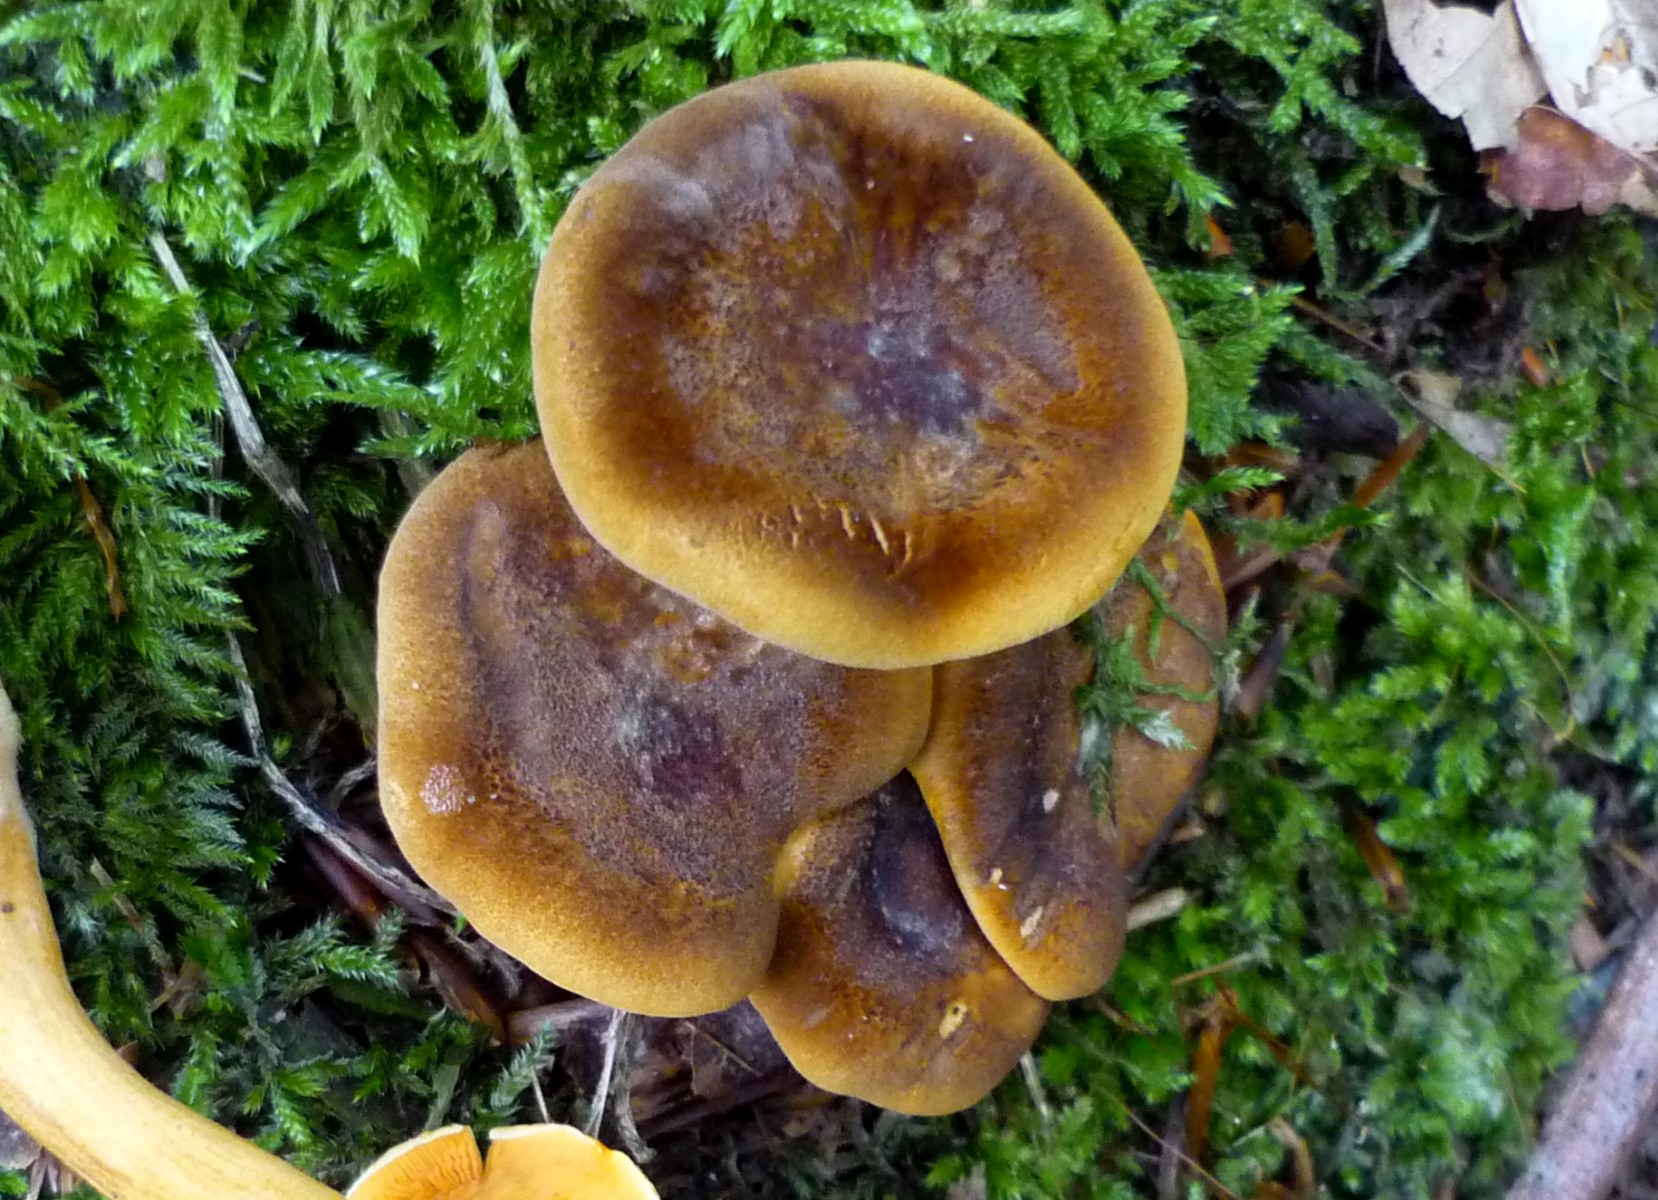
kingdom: Fungi
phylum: Basidiomycota
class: Agaricomycetes
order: Boletales
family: Hygrophoropsidaceae
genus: Hygrophoropsis
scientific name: Hygrophoropsis rufa
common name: brunfiltet orangekantarel
